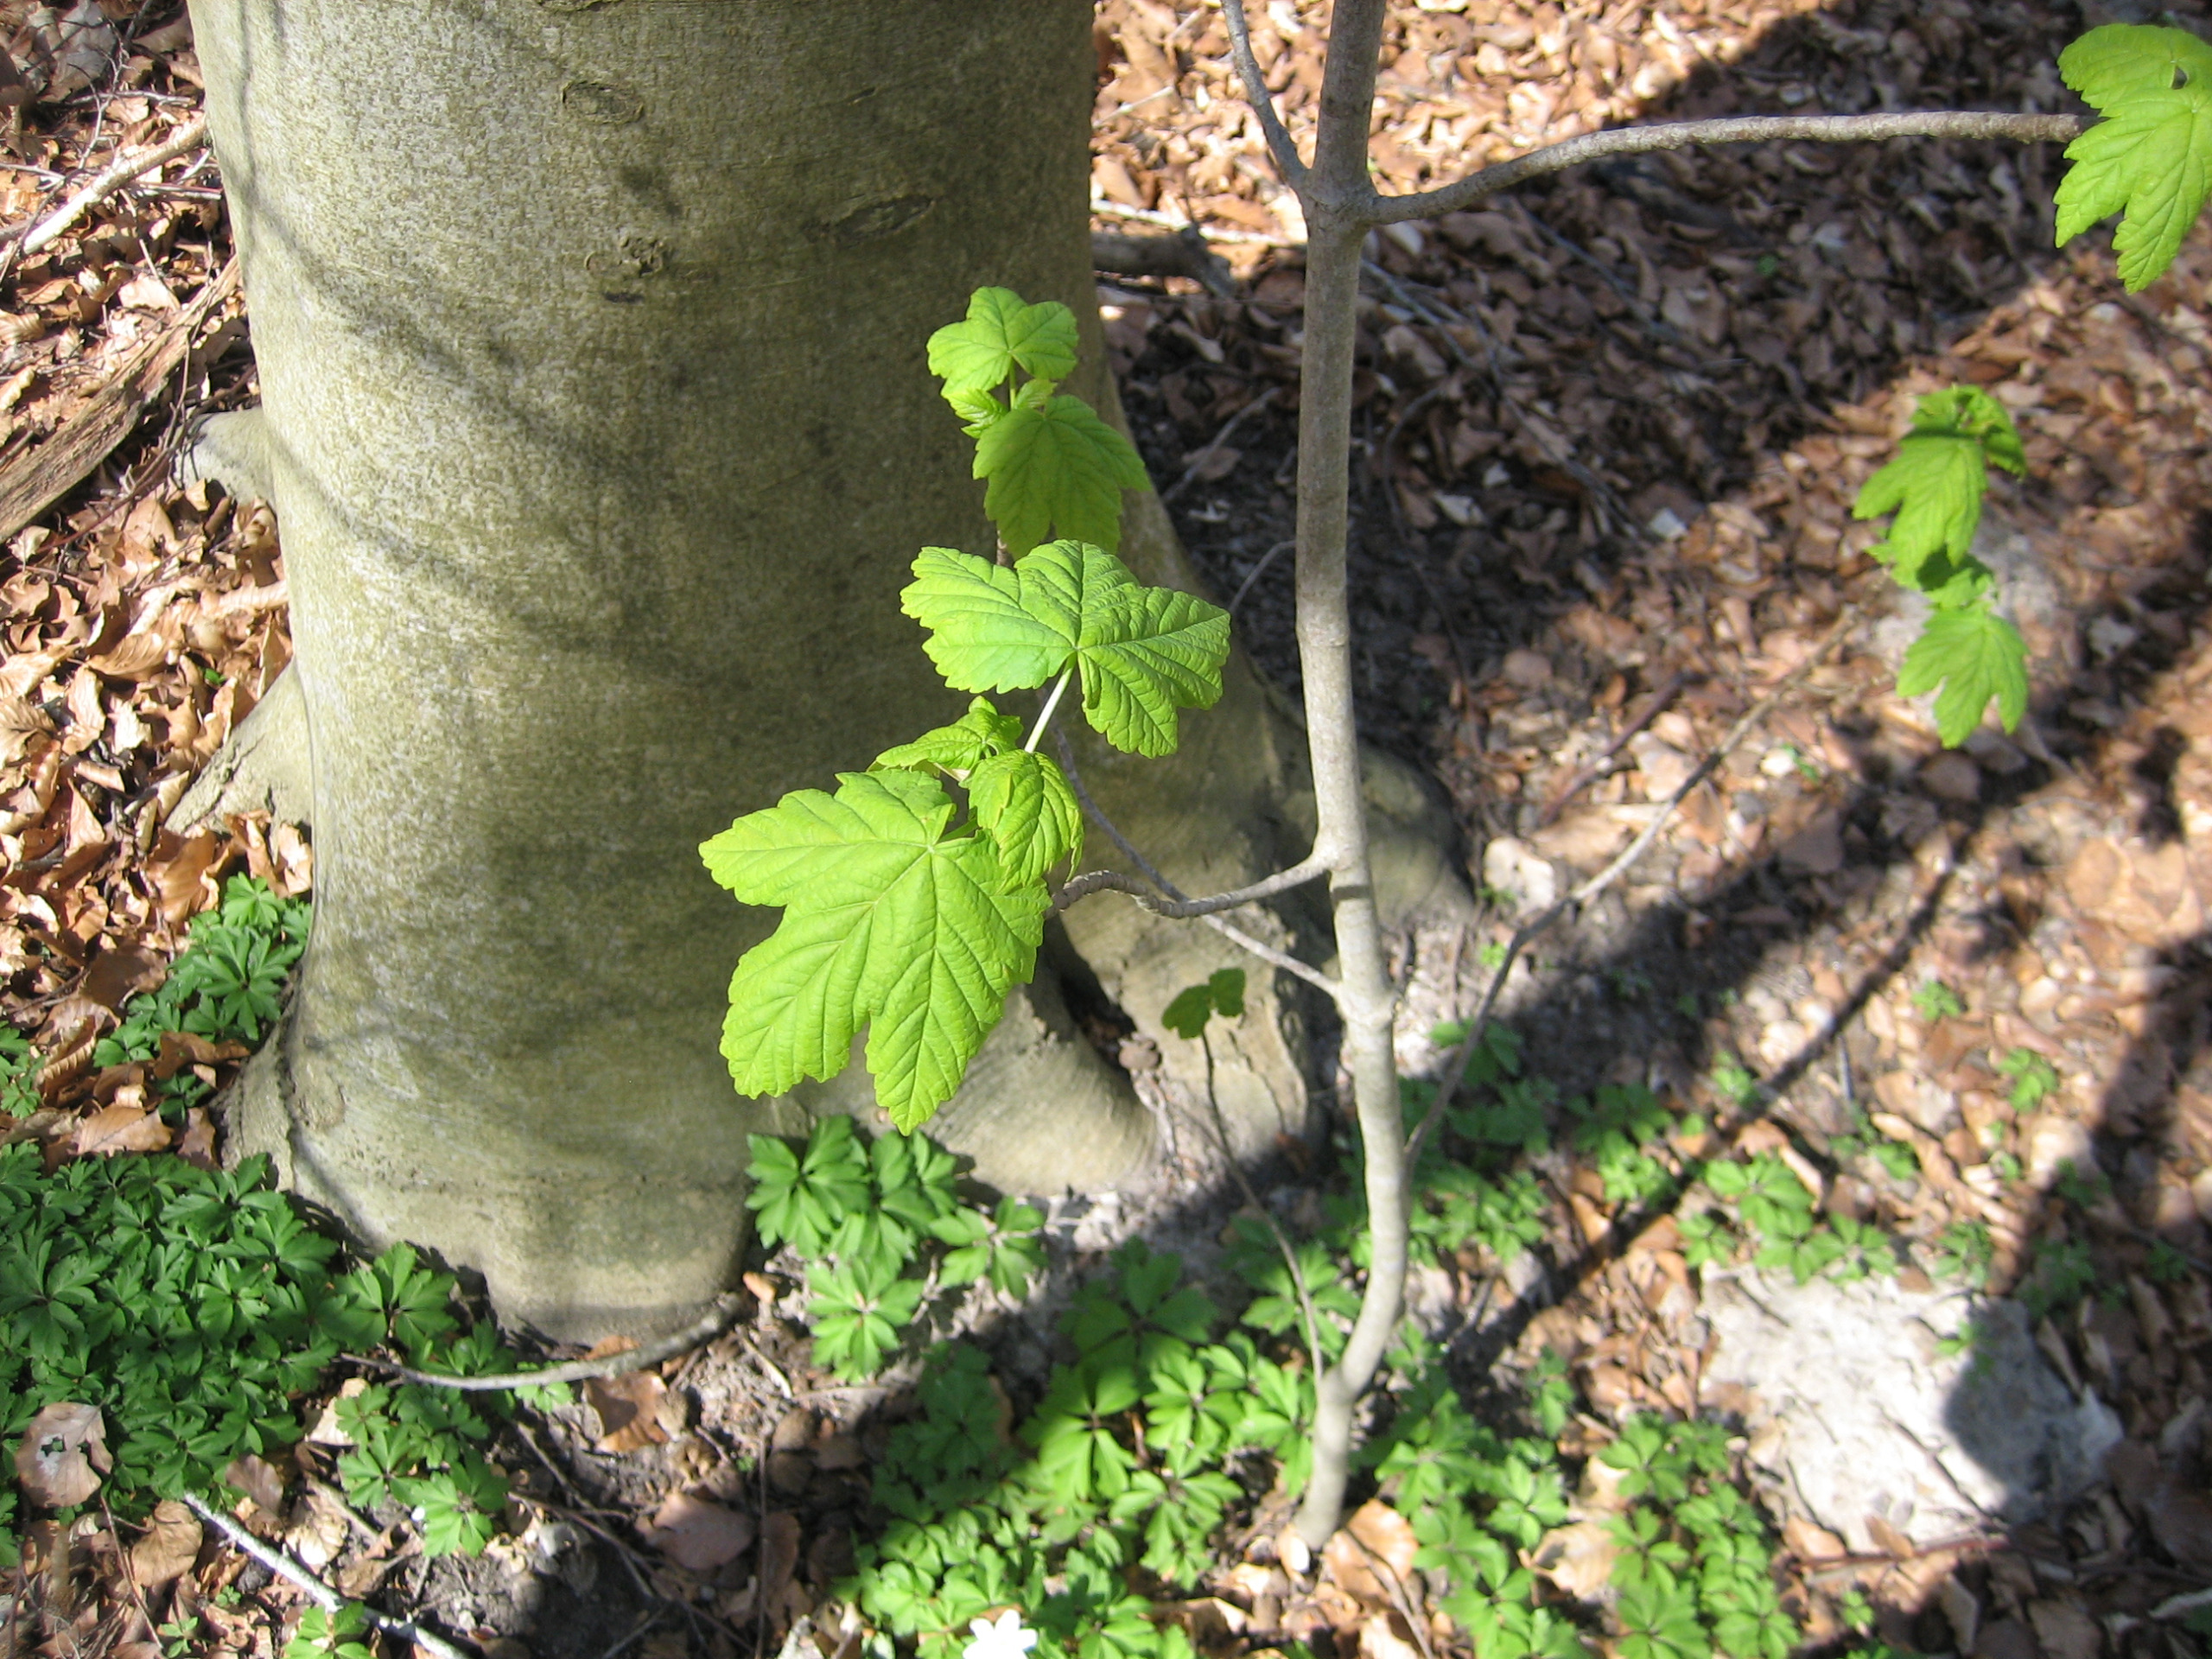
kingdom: Plantae
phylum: Tracheophyta
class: Magnoliopsida
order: Sapindales
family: Sapindaceae
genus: Acer
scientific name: Acer pseudoplatanus
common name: Ahorn
